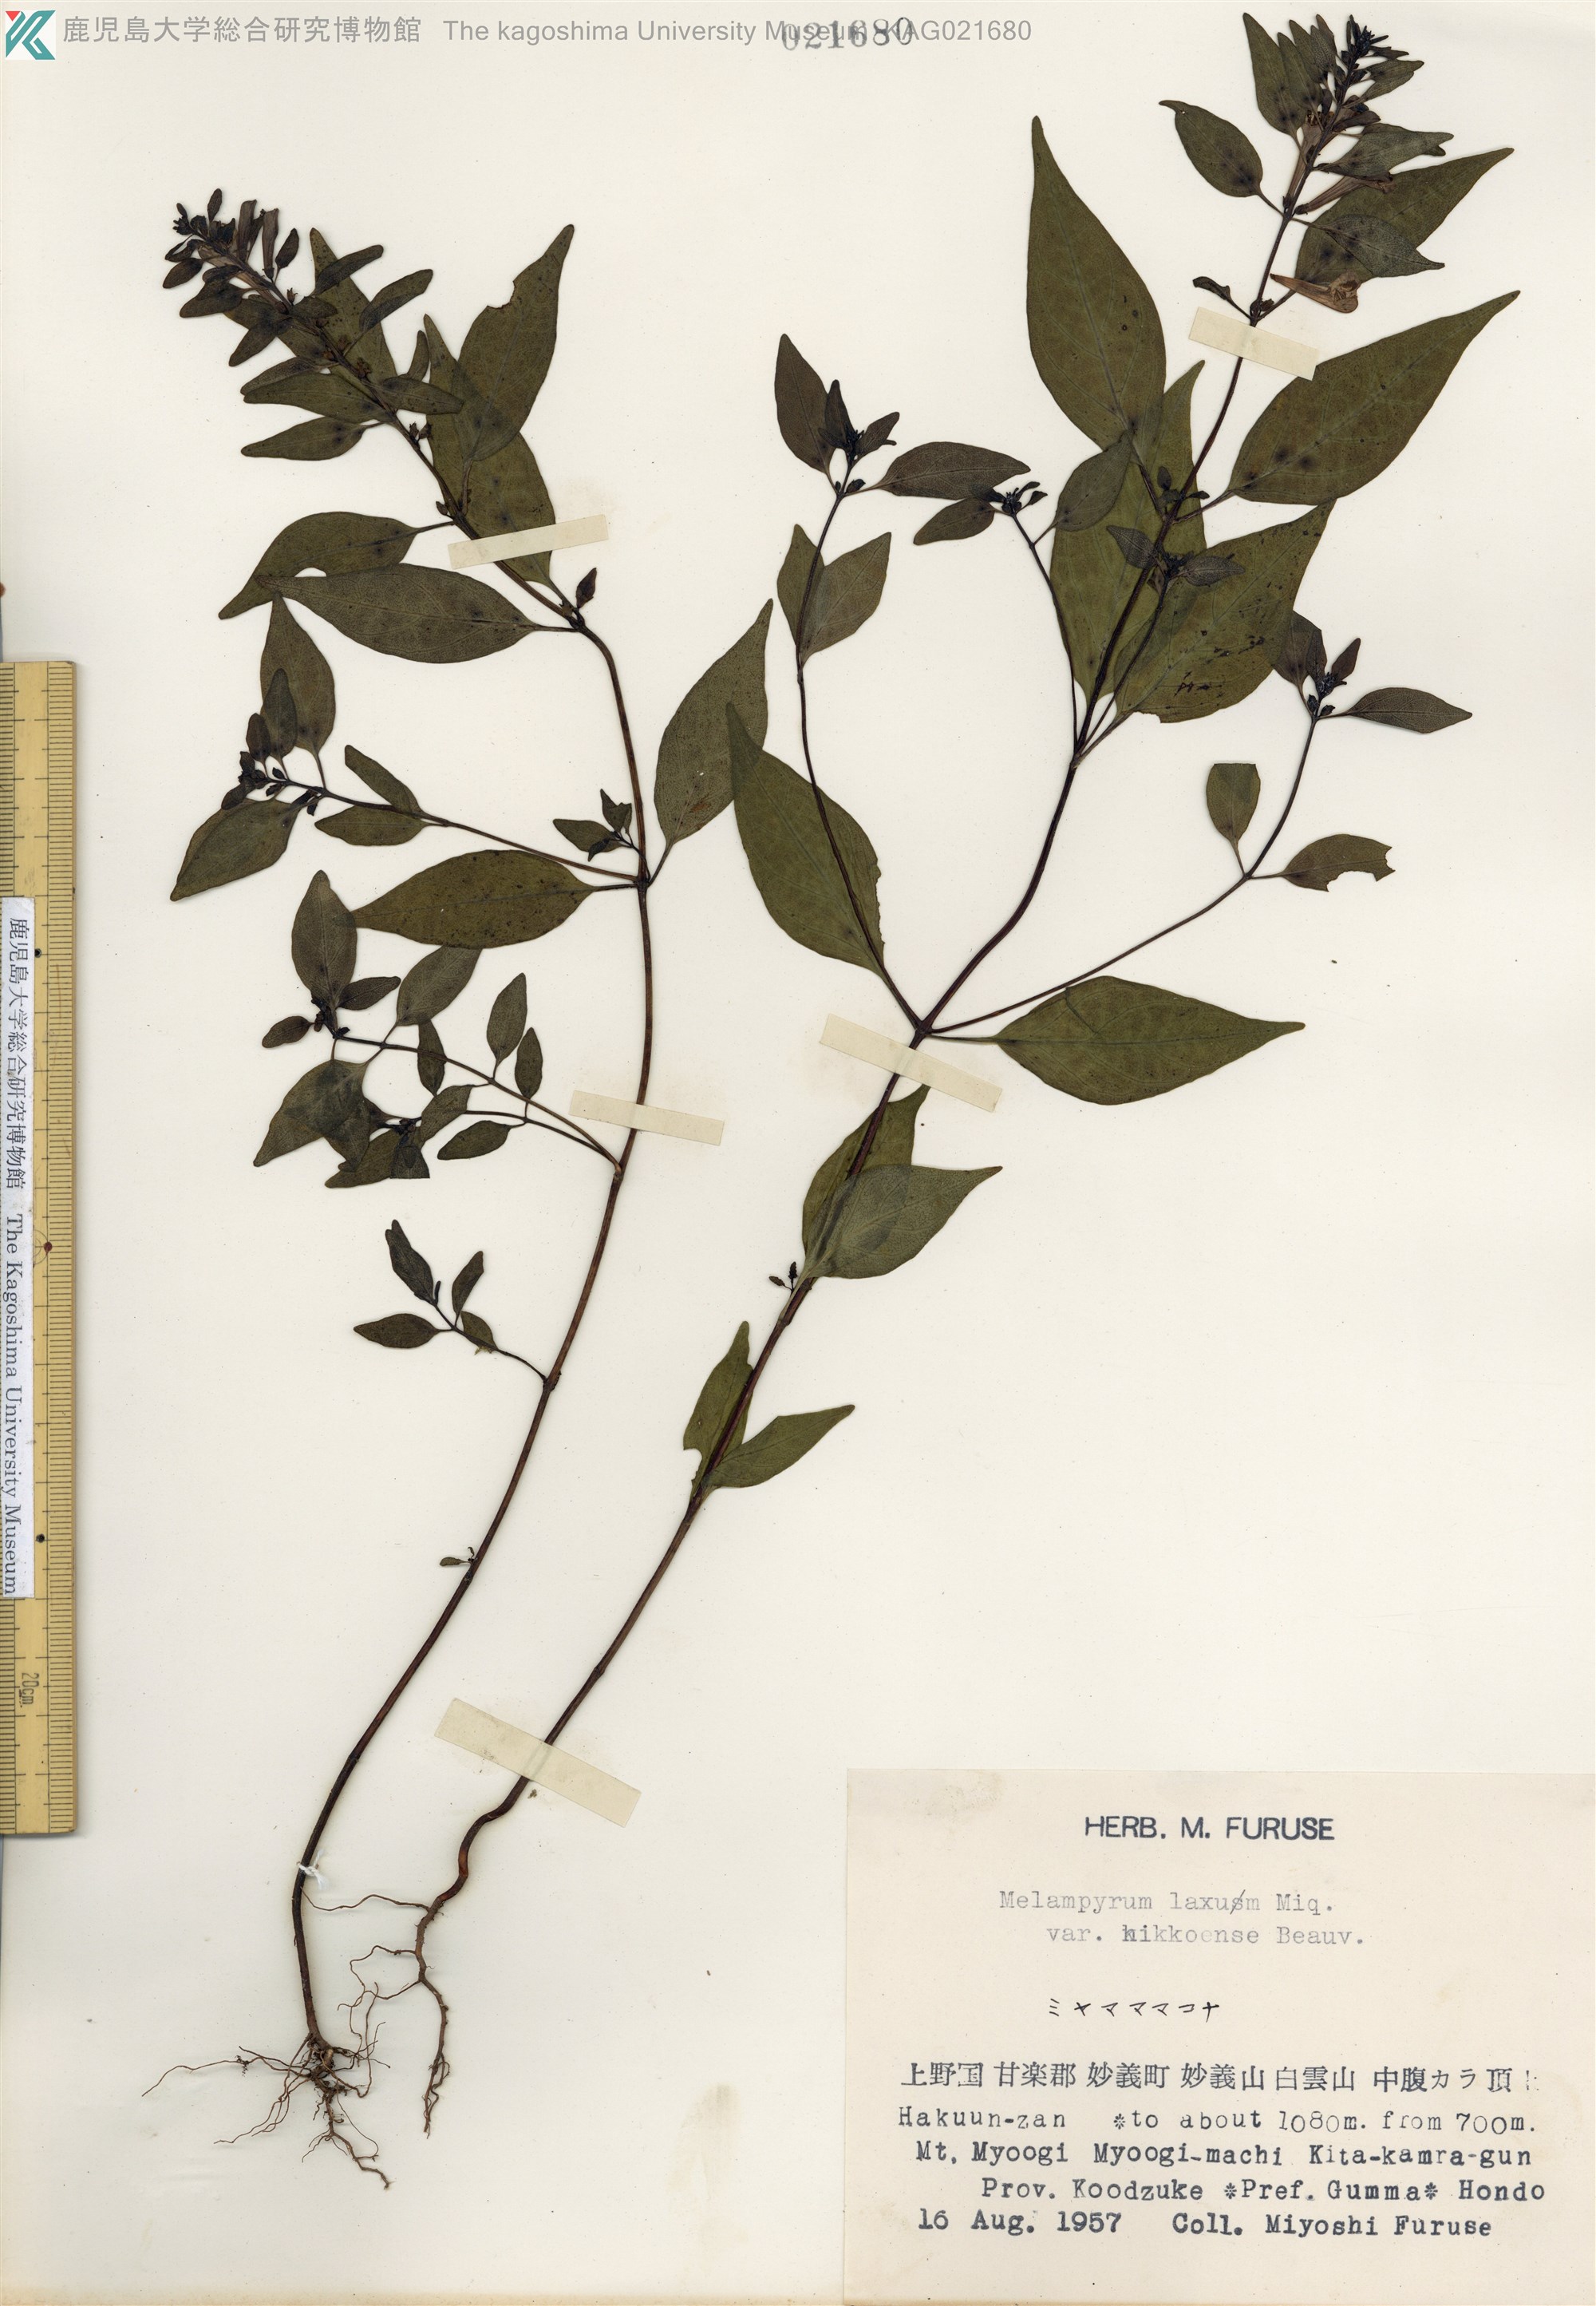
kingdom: Plantae
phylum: Tracheophyta
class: Magnoliopsida
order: Lamiales
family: Orobanchaceae
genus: Melampyrum
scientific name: Melampyrum laxum
